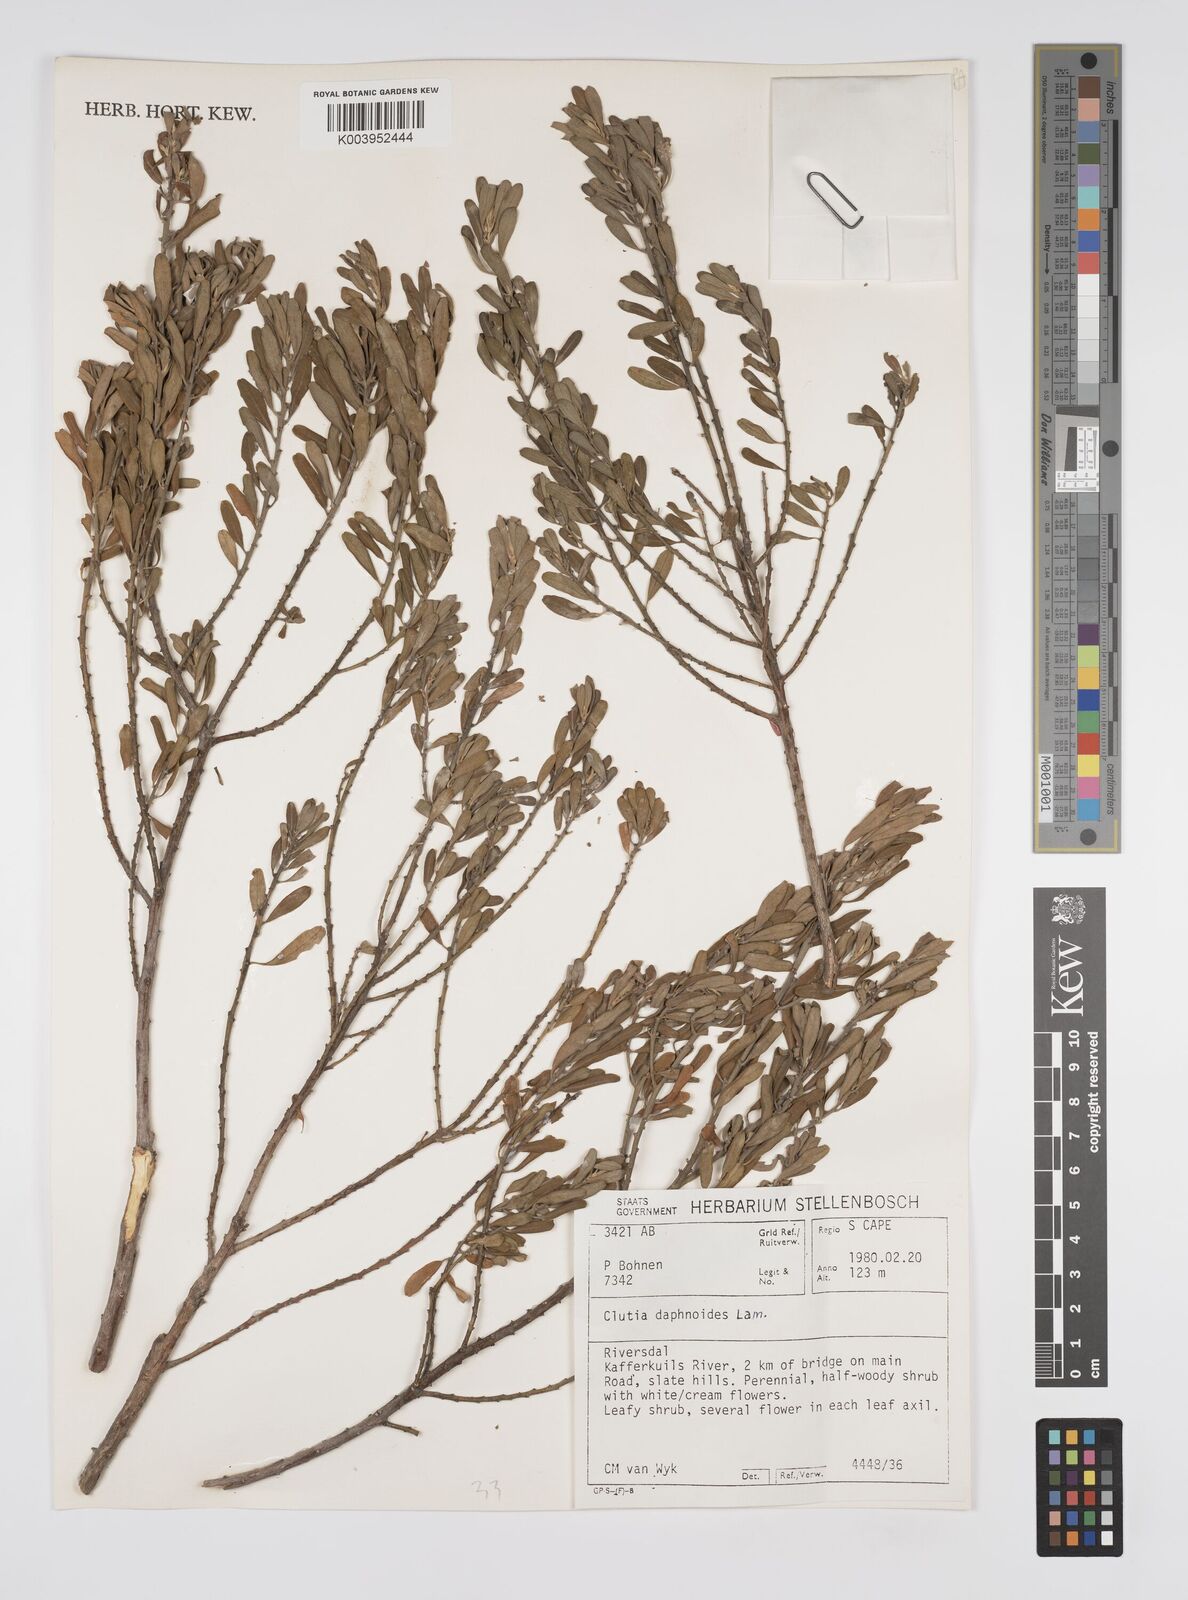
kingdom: Plantae
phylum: Tracheophyta
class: Magnoliopsida
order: Malpighiales
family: Peraceae
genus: Clutia
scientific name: Clutia daphnoides
